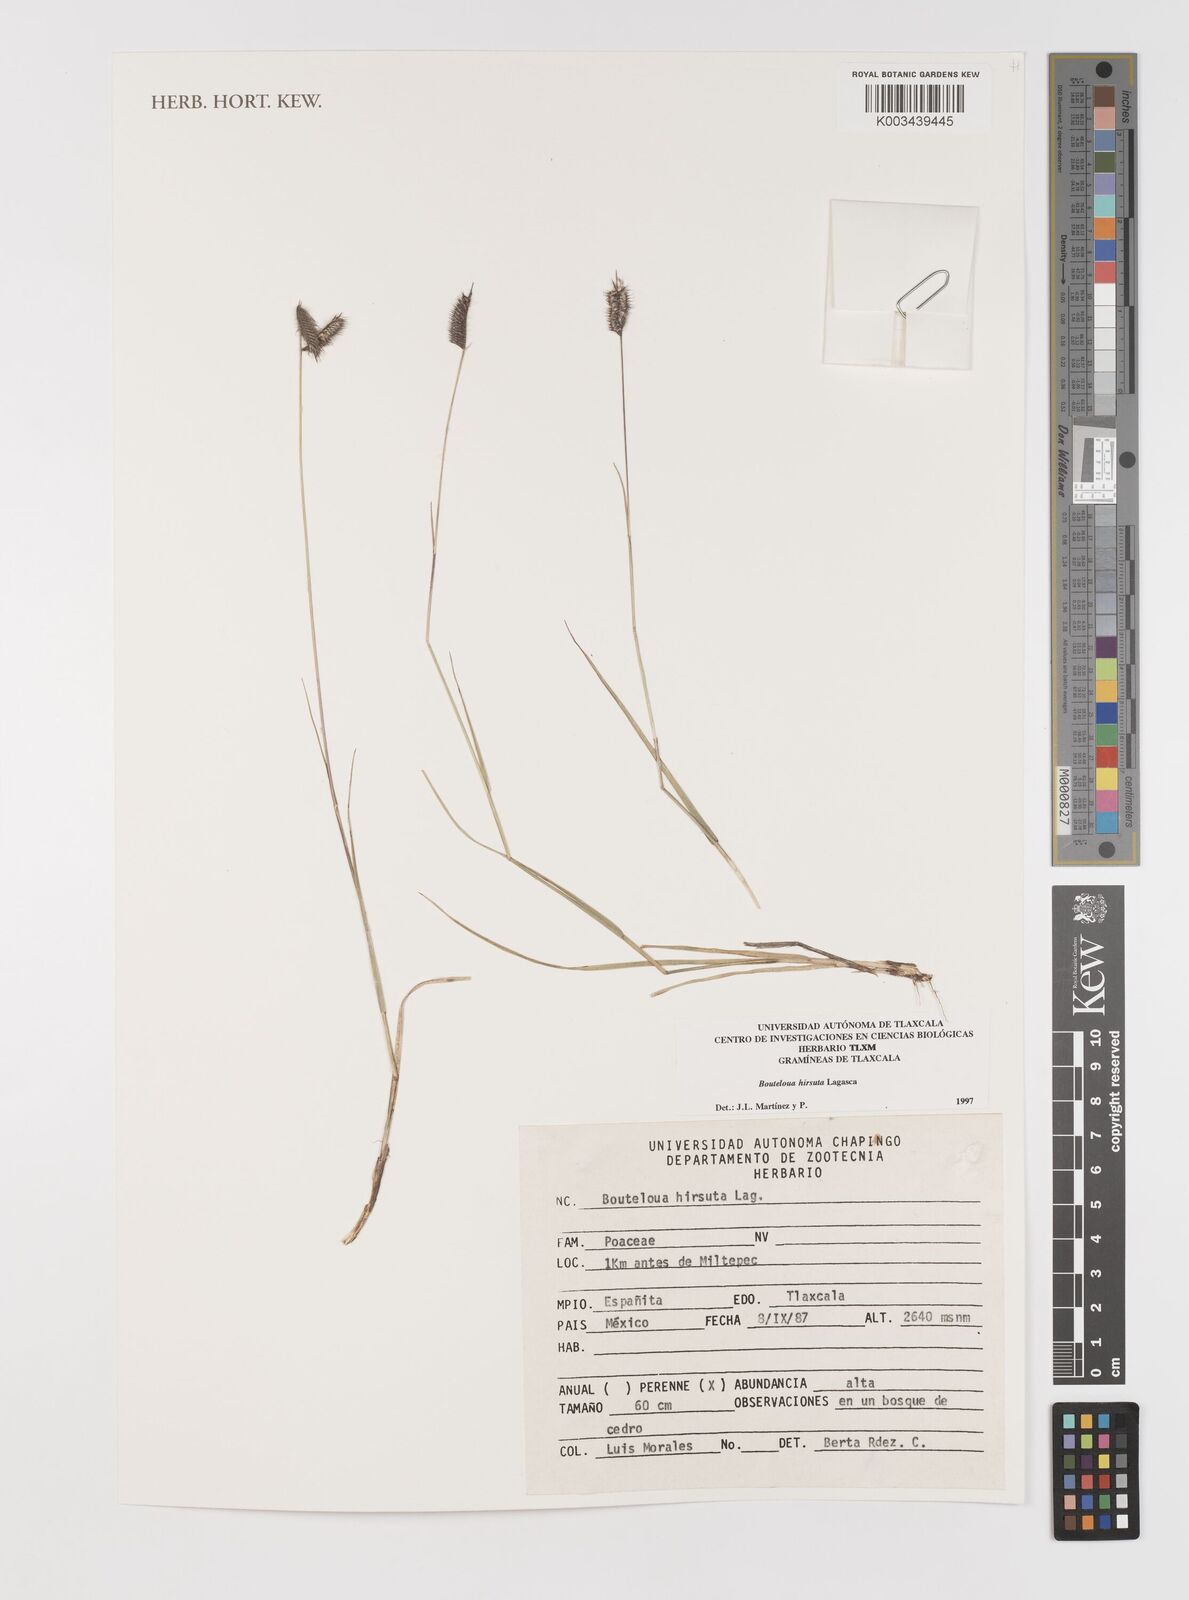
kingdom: Plantae
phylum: Tracheophyta
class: Liliopsida
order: Poales
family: Poaceae
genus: Bouteloua
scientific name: Bouteloua hirsuta
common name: Hairy grama
